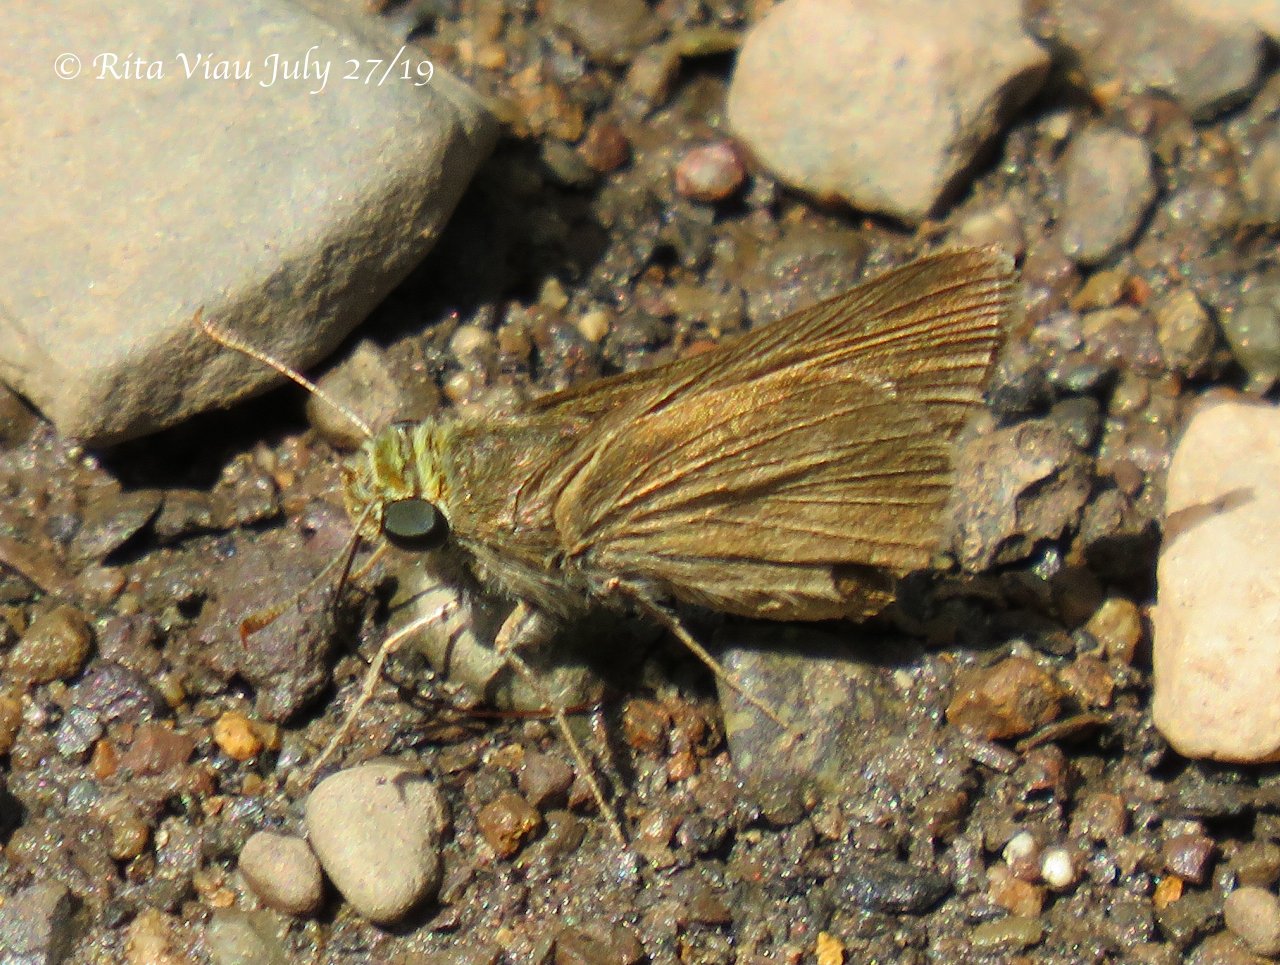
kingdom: Animalia
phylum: Arthropoda
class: Insecta
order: Lepidoptera
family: Hesperiidae
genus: Euphyes
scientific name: Euphyes vestris
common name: Dun Skipper
